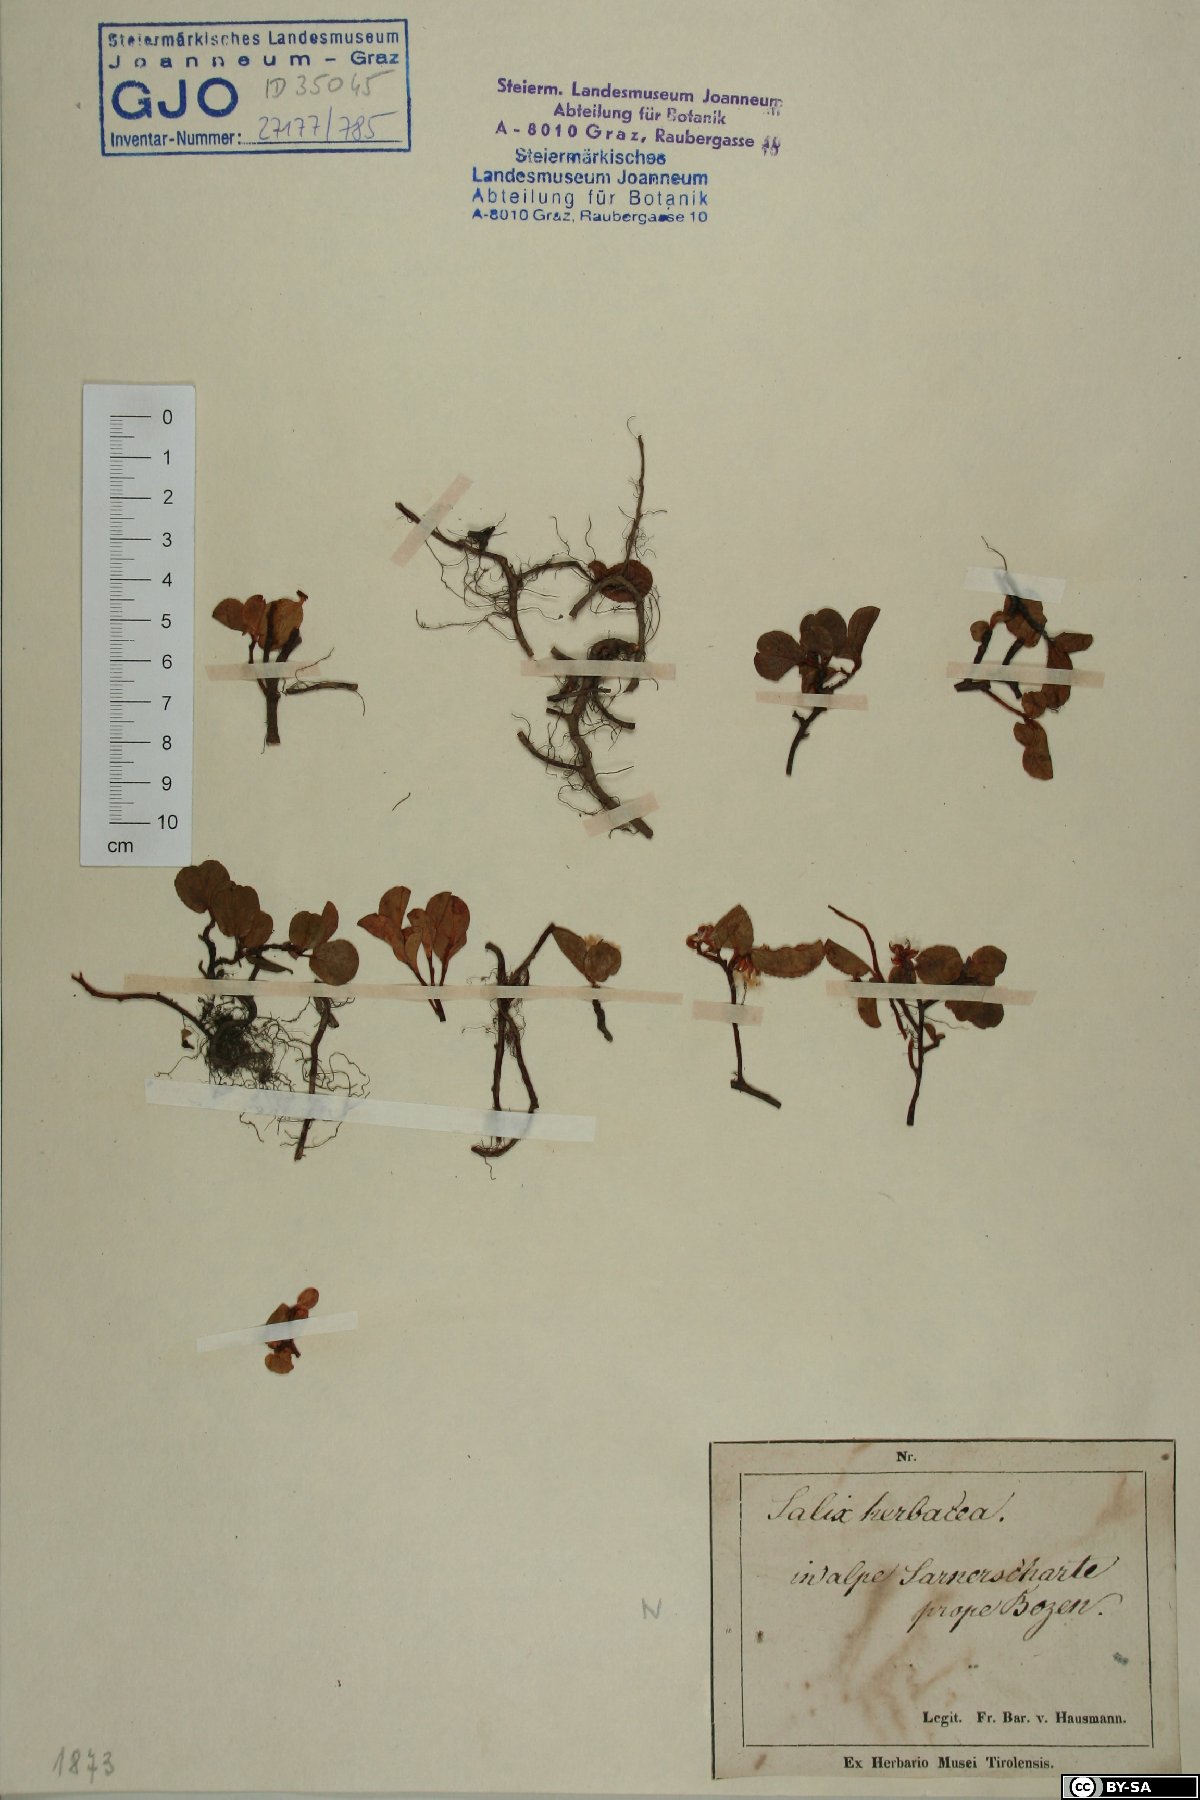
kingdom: Plantae
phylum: Tracheophyta
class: Magnoliopsida
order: Malpighiales
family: Salicaceae
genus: Salix
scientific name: Salix herbacea
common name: Dwarf willow
